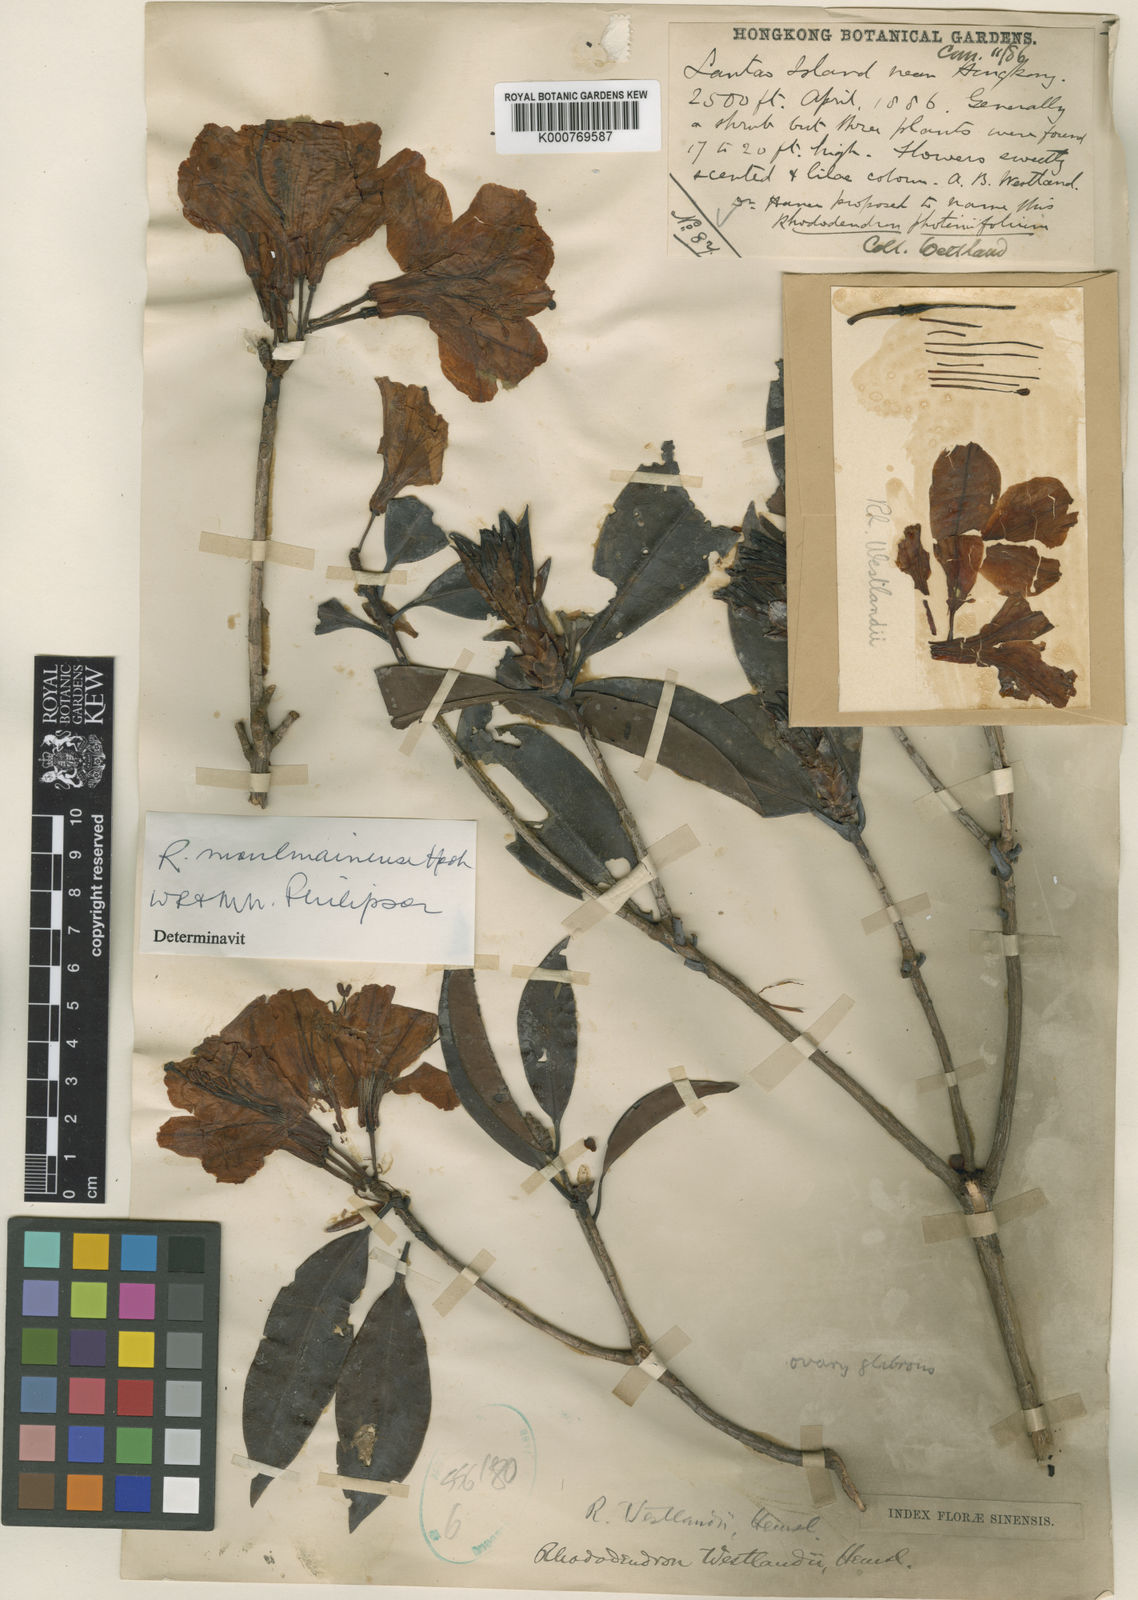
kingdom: Plantae
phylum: Tracheophyta
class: Magnoliopsida
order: Ericales
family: Ericaceae
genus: Rhododendron
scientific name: Rhododendron moulmainense
